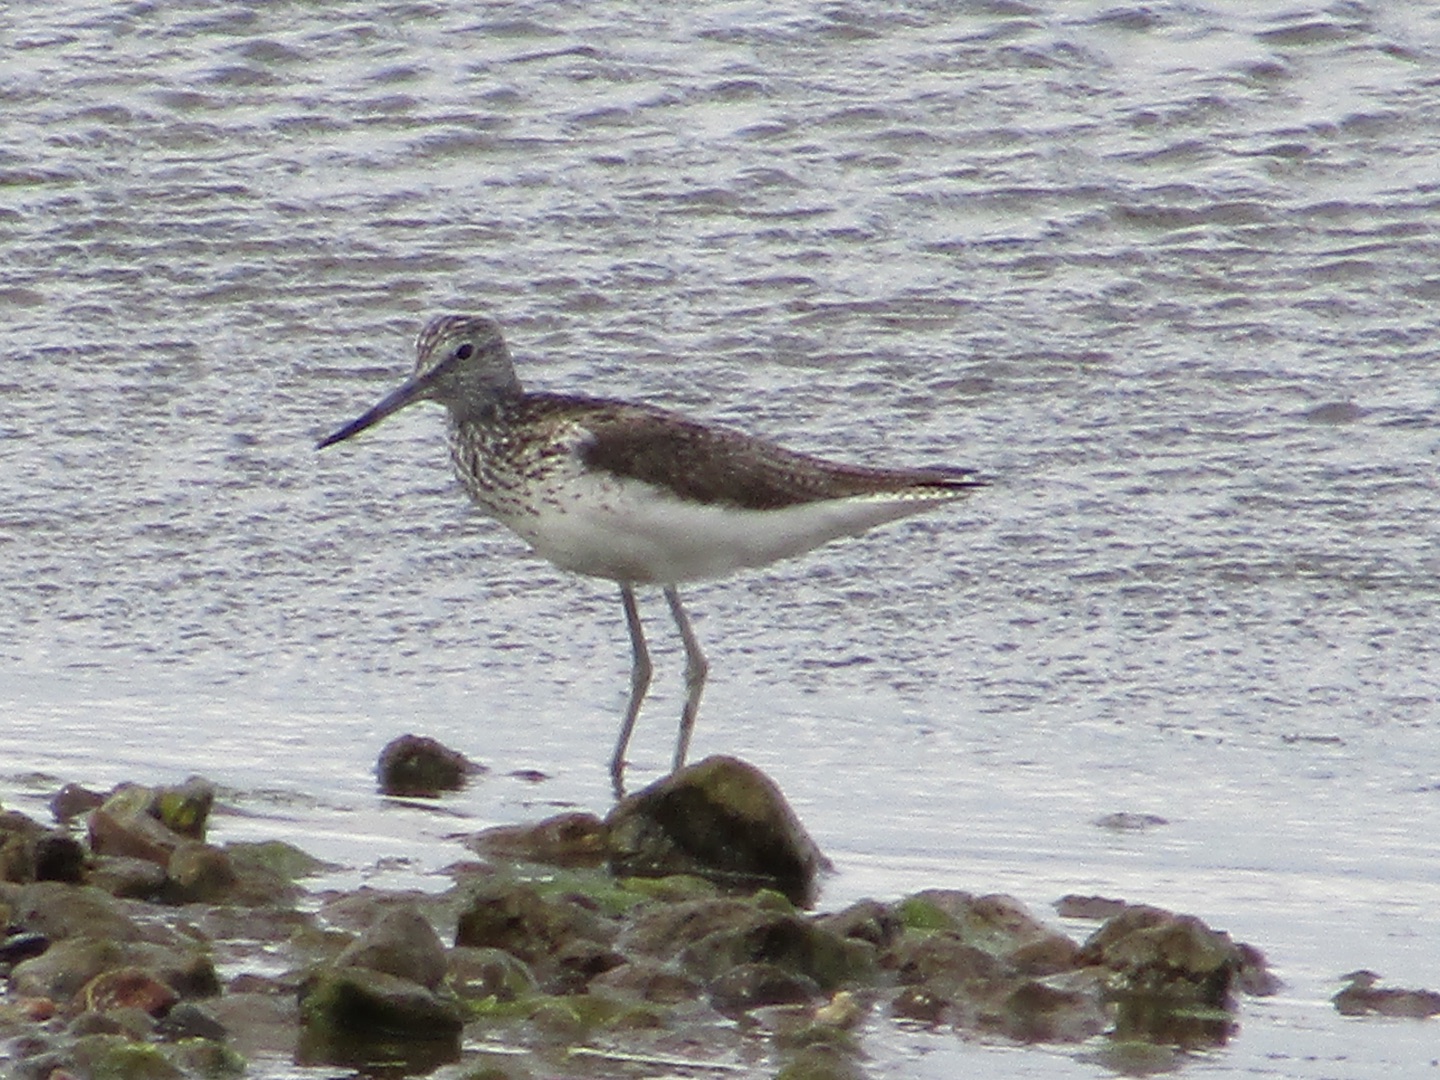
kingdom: Animalia
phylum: Chordata
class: Aves
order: Charadriiformes
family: Scolopacidae
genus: Tringa
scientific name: Tringa nebularia
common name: Hvidklire
